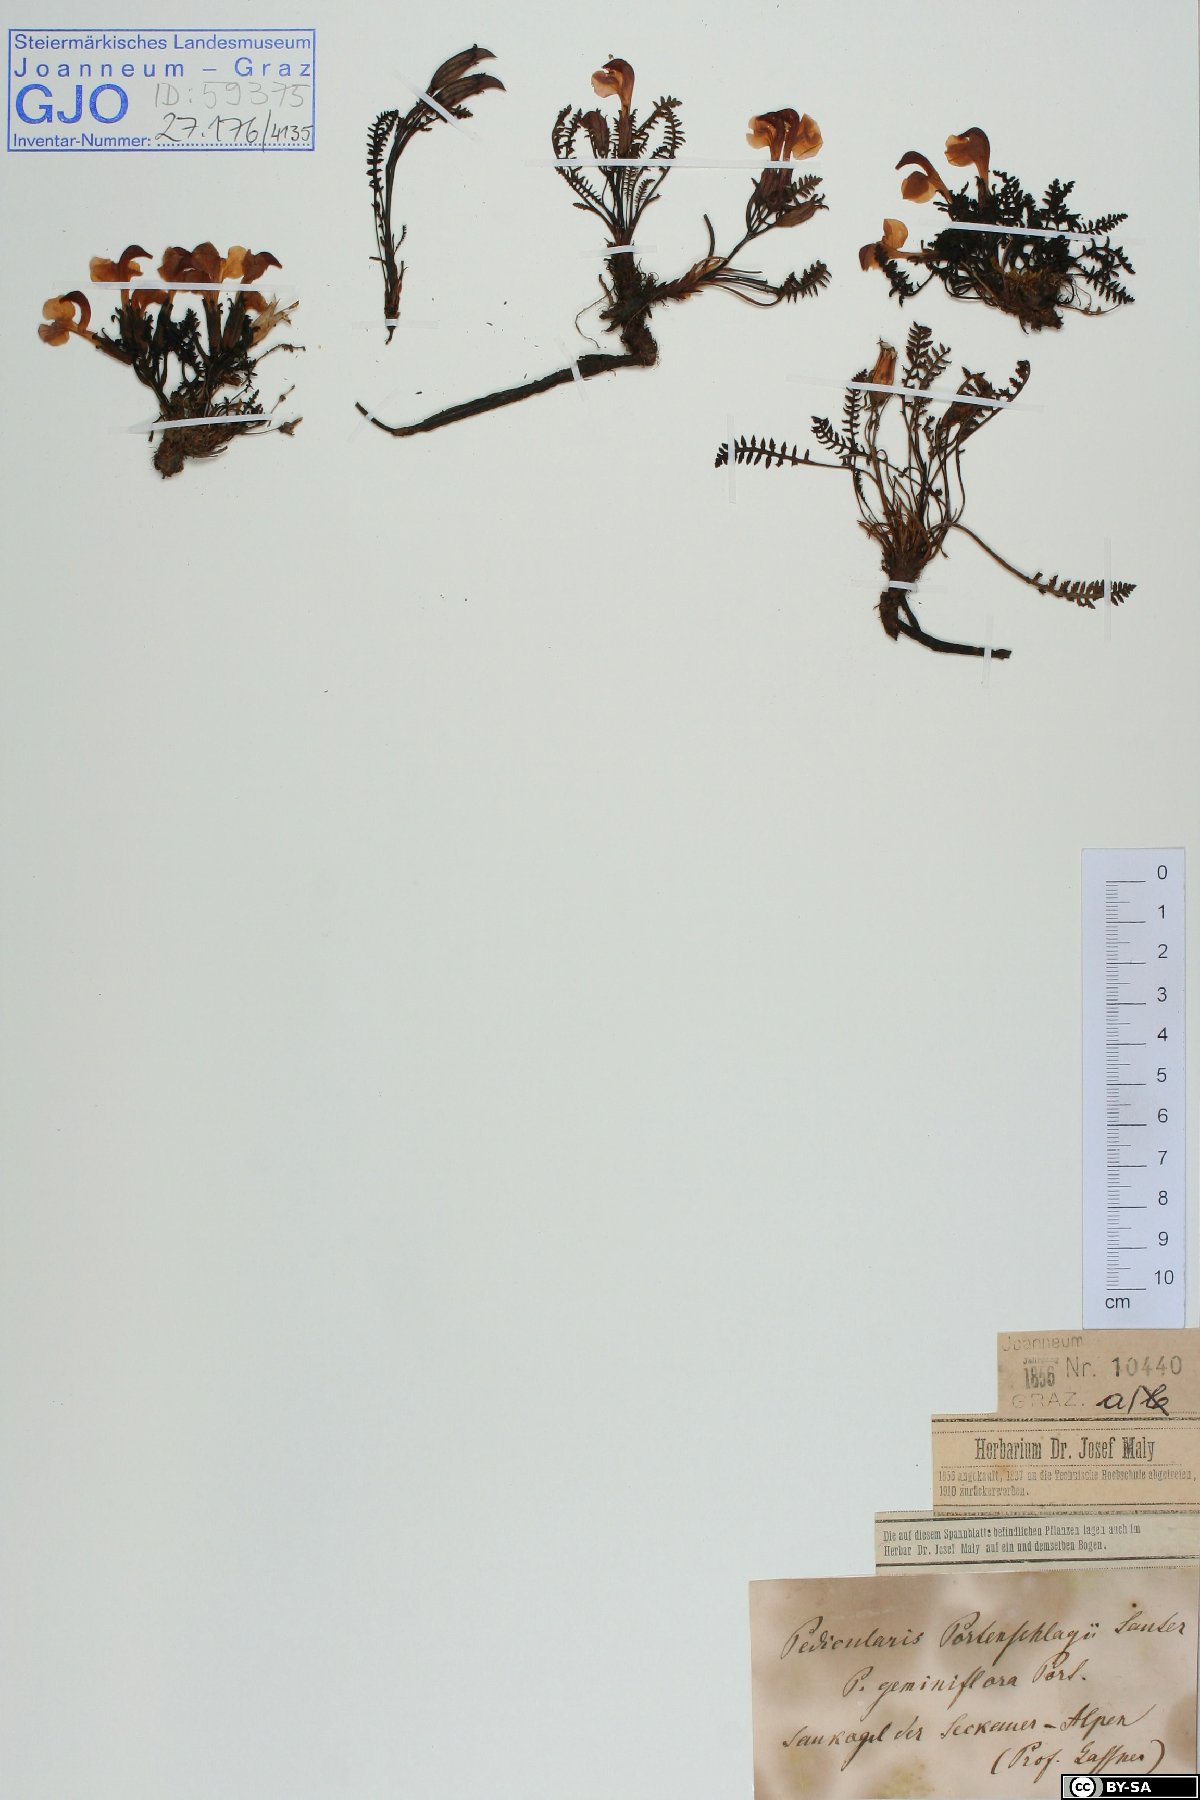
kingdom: Plantae
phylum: Tracheophyta
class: Magnoliopsida
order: Lamiales
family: Orobanchaceae
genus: Pedicularis
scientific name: Pedicularis portenschlagii
